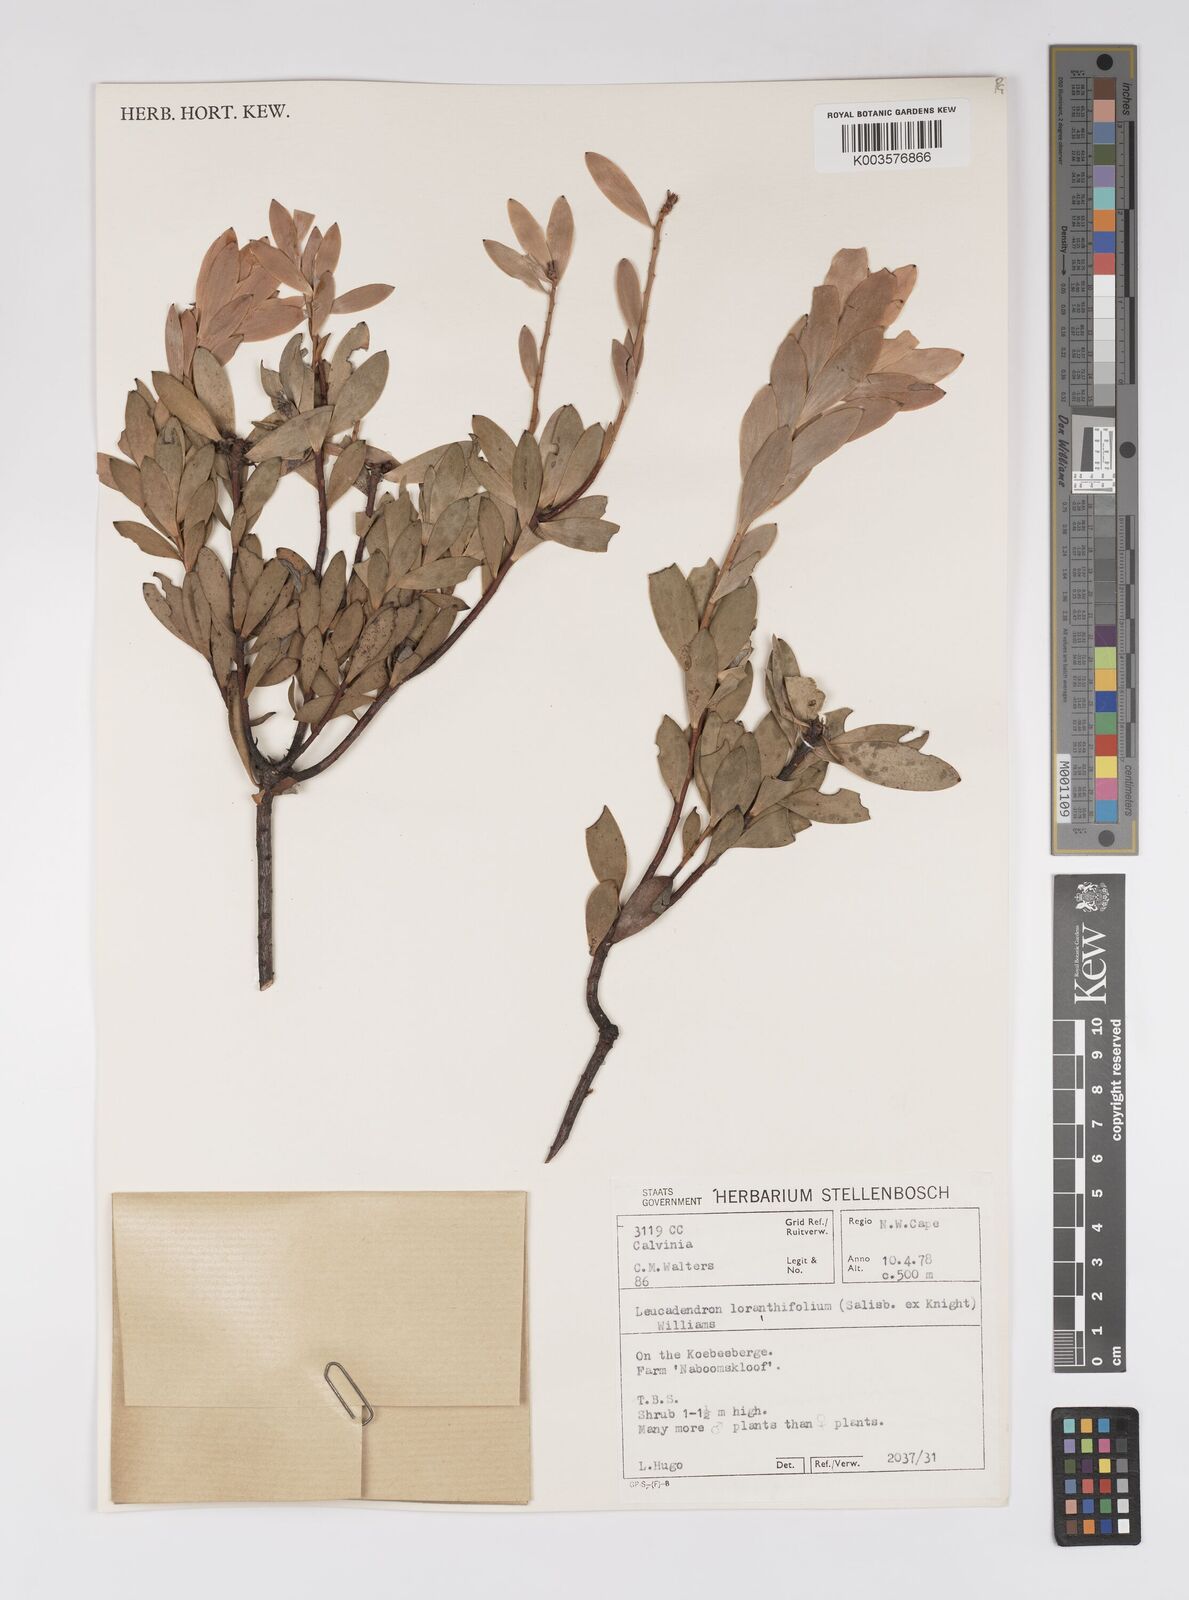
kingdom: Plantae
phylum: Tracheophyta
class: Magnoliopsida
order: Proteales
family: Proteaceae
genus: Leucadendron
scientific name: Leucadendron loranthifolium
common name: Green-flower sunbush
